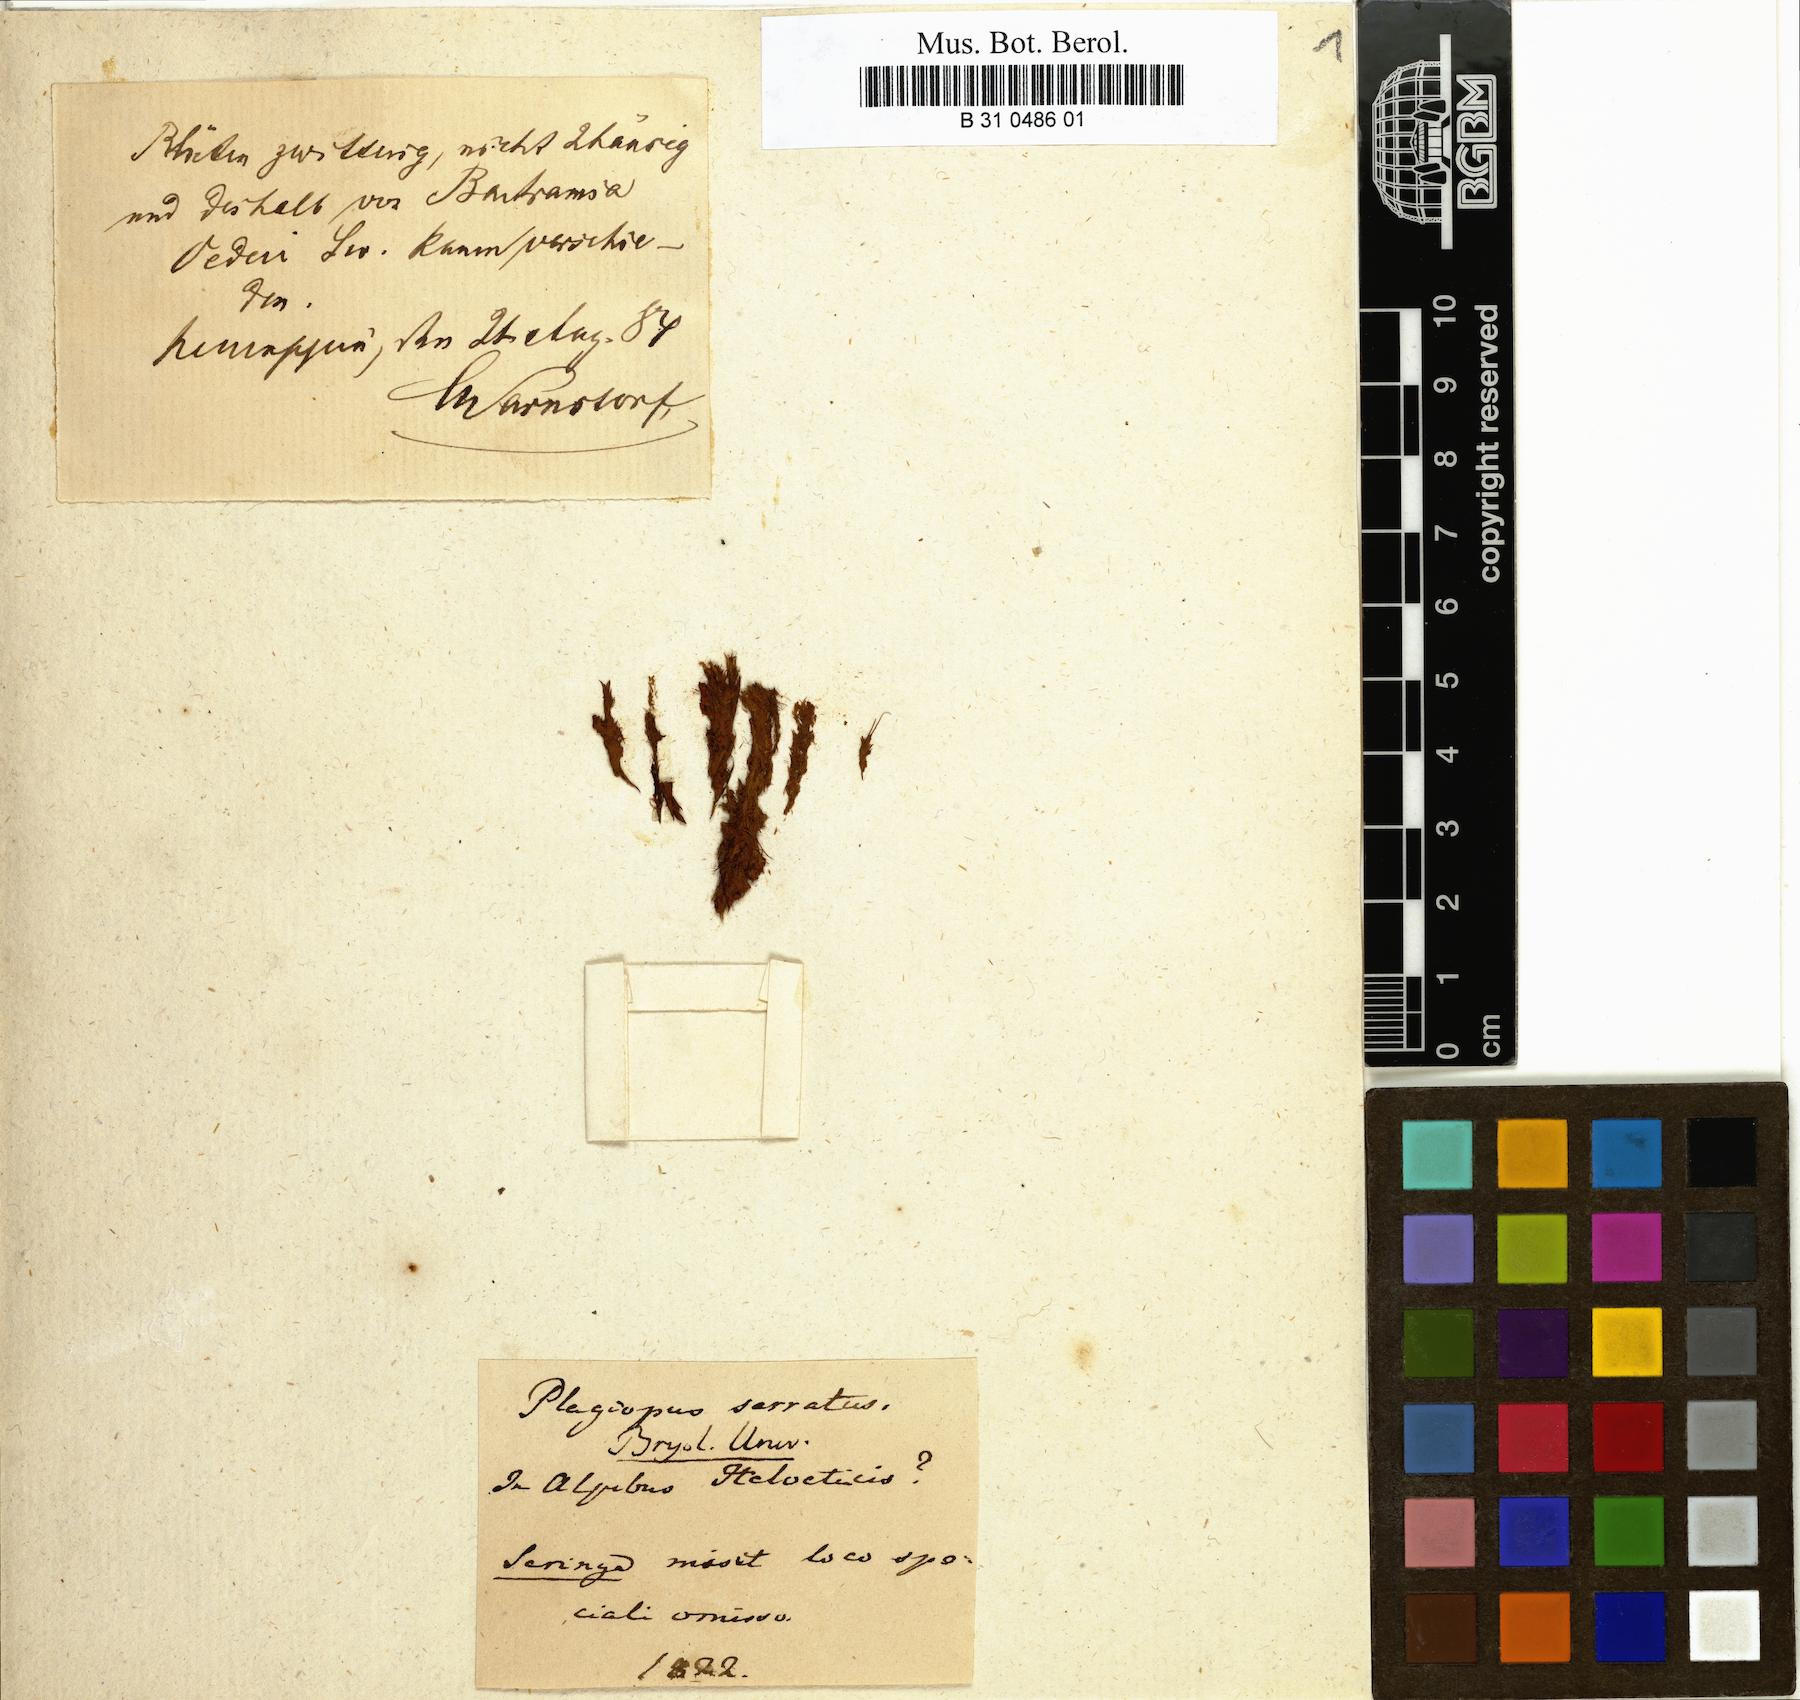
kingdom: Plantae
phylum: Bryophyta
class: Bryopsida
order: Bartramiales
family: Bartramiaceae
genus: Plagiopus
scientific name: Plagiopus alpinus
